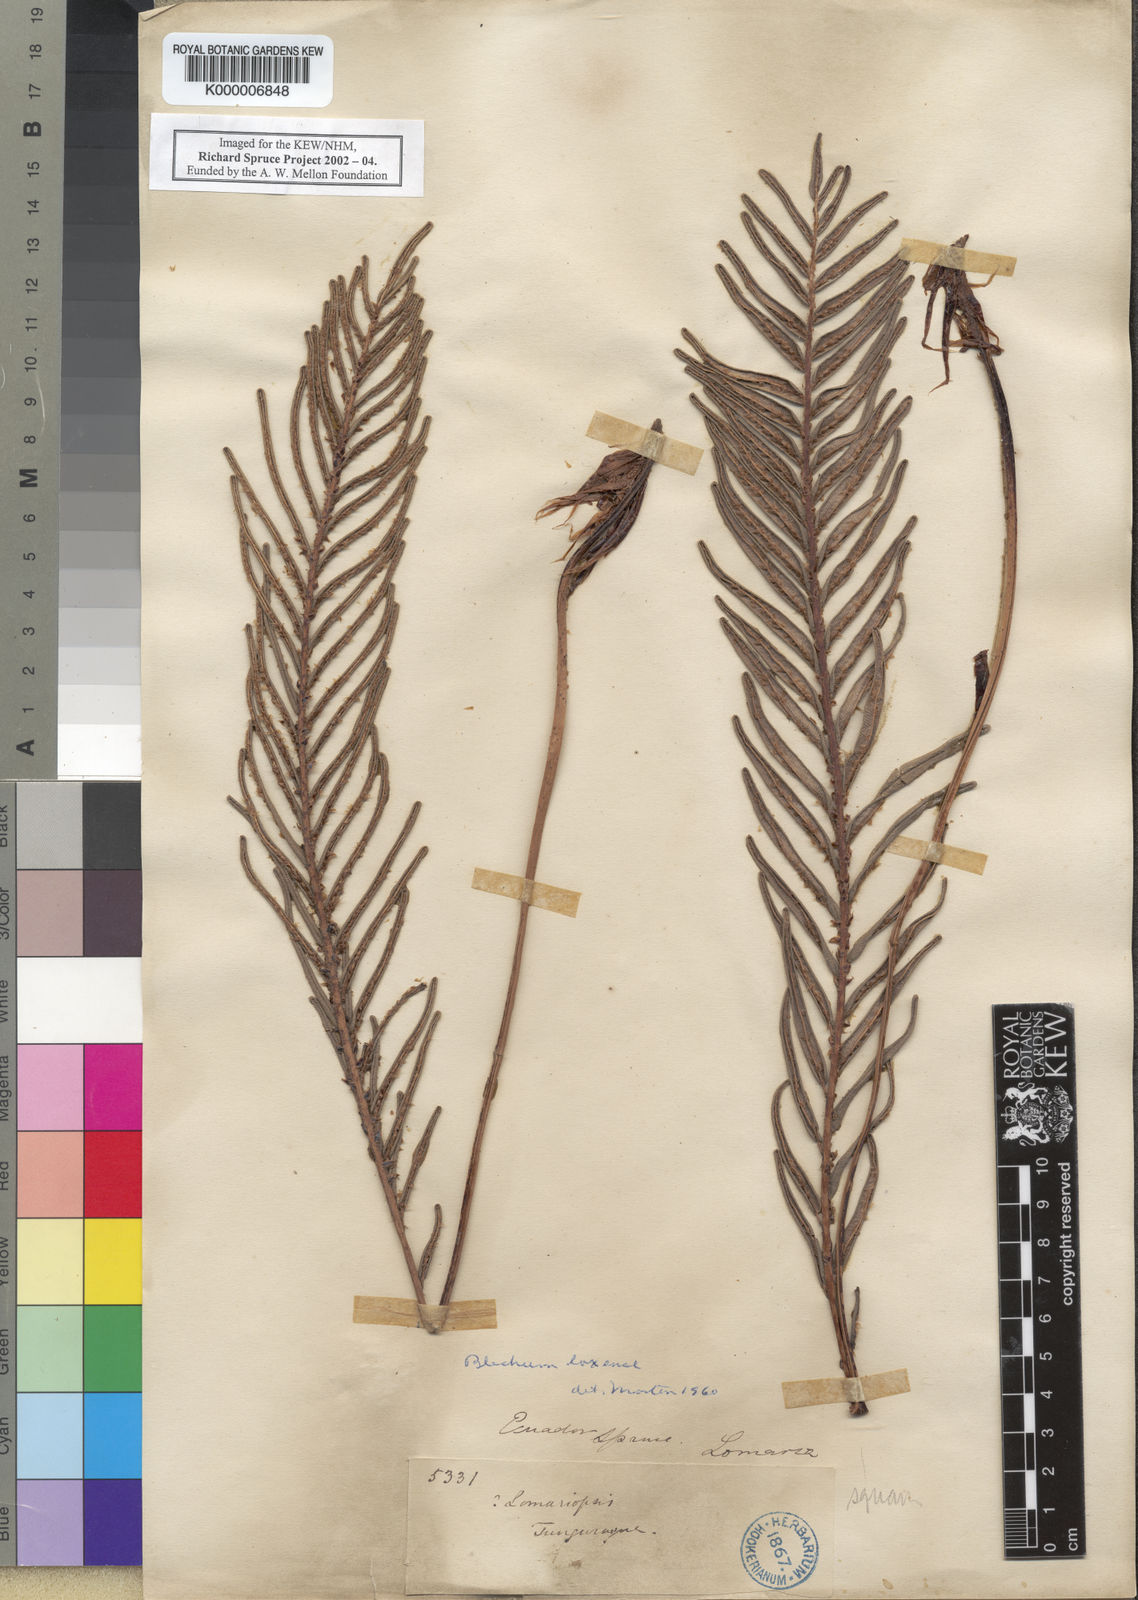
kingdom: Plantae
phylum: Tracheophyta
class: Polypodiopsida
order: Polypodiales
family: Blechnaceae
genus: Blechnum
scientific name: Blechnum
